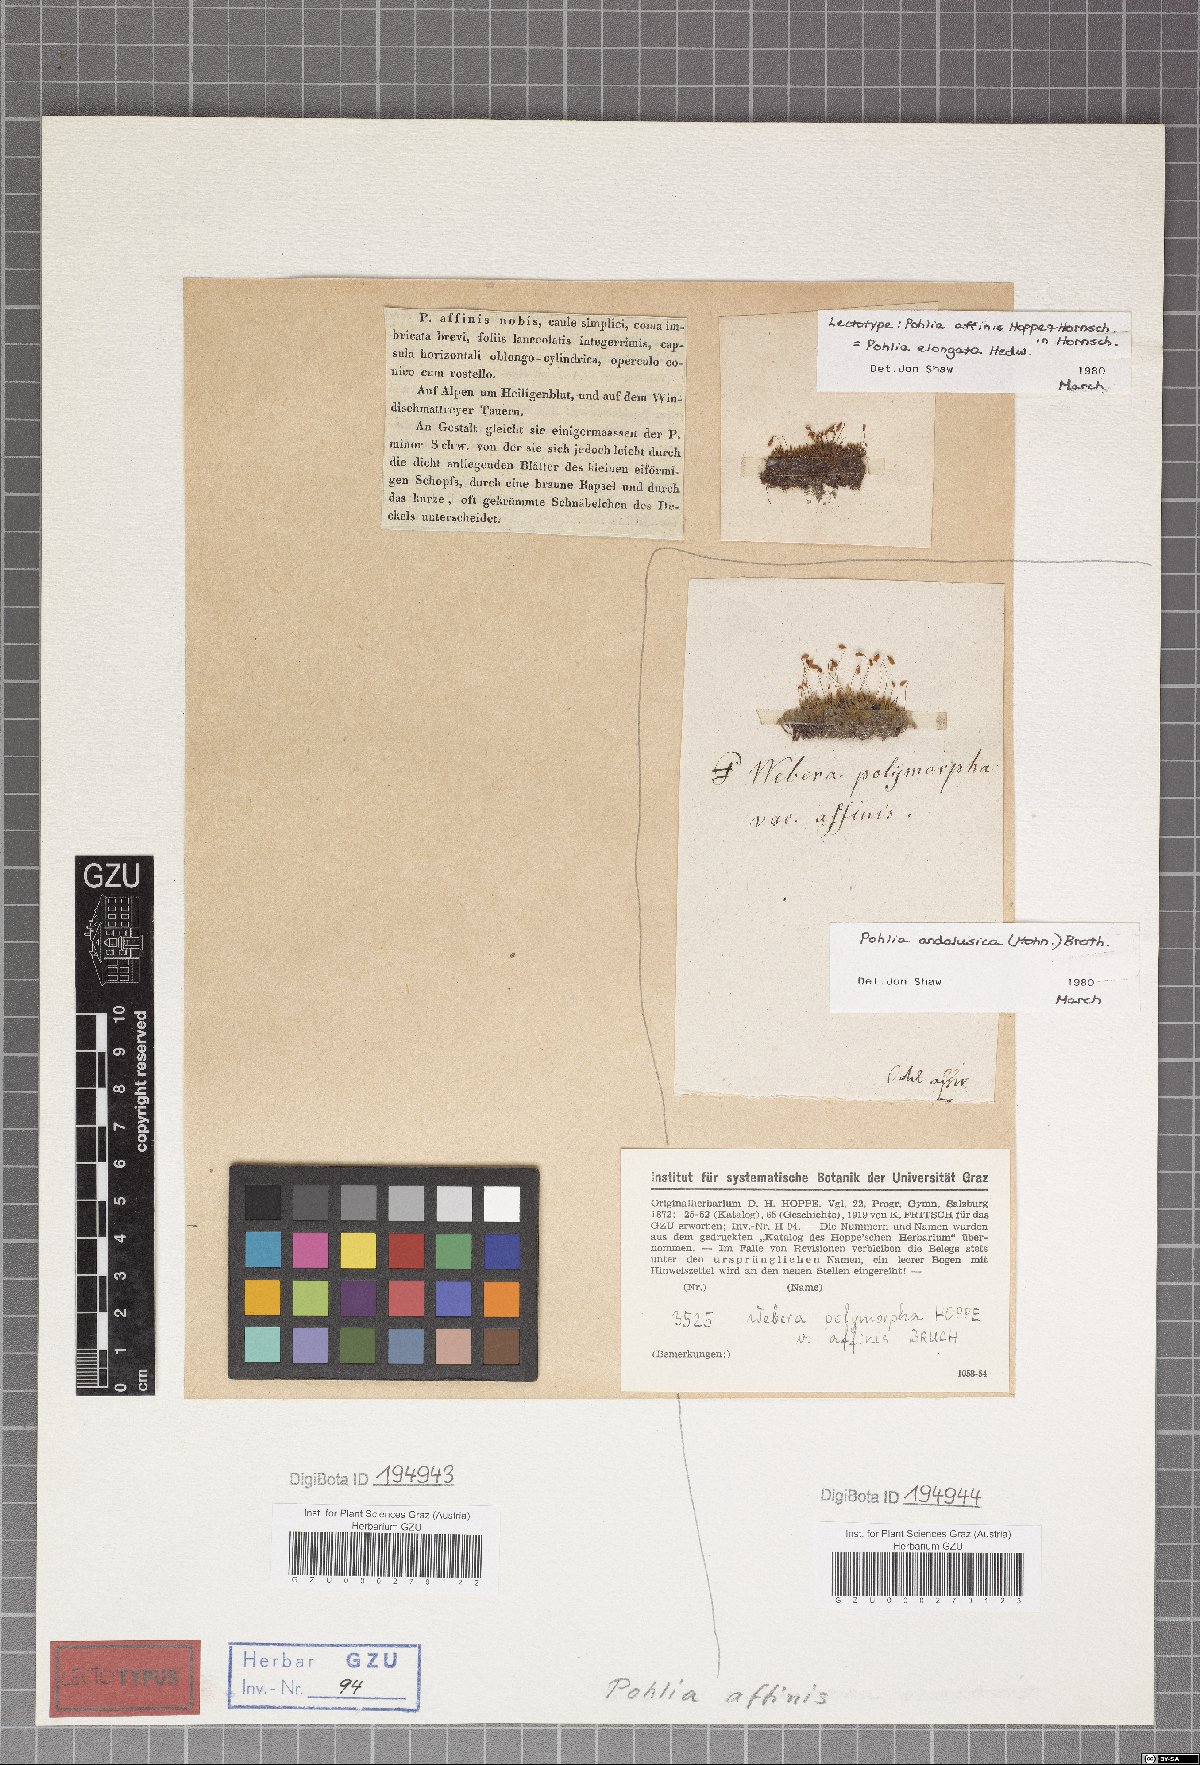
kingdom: Plantae
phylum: Bryophyta
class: Bryopsida
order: Bryales
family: Mniaceae
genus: Pohlia
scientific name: Pohlia elongata
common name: Long-fruited thread-moss
